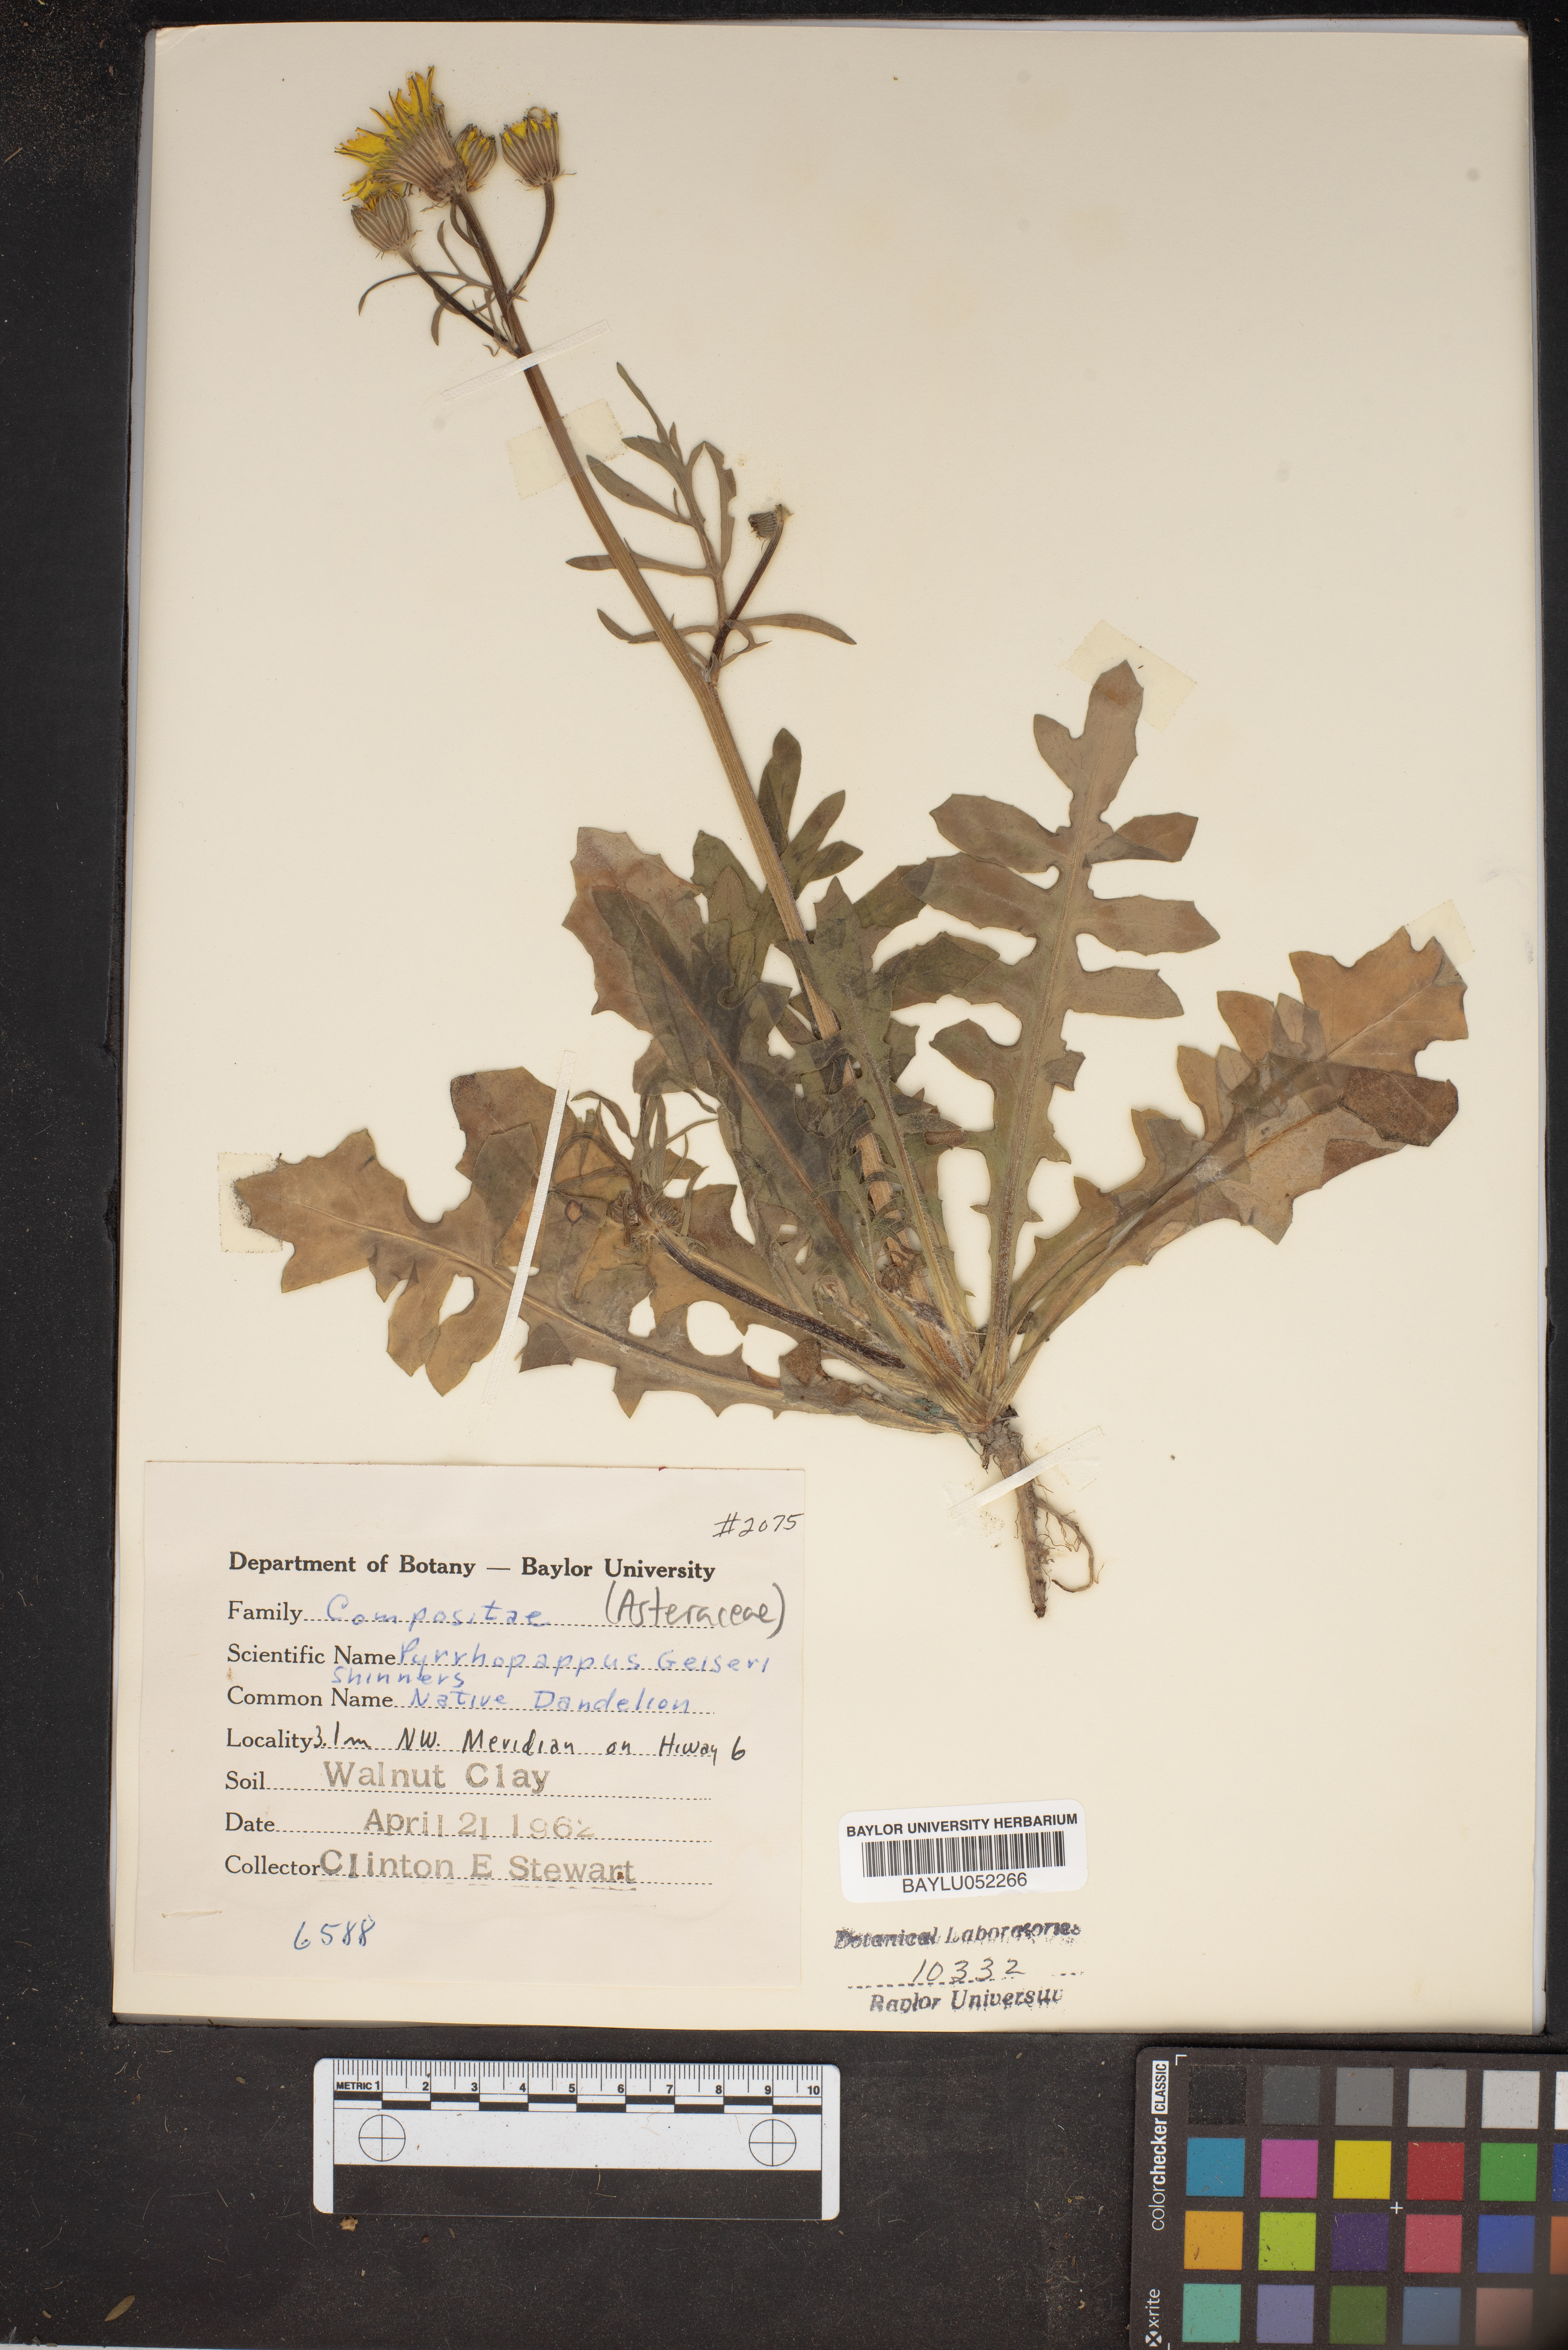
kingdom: Plantae
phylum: Tracheophyta
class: Magnoliopsida
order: Asterales
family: Asteraceae
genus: Pyrrhopappus
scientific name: Pyrrhopappus pauciflorus
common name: Texas false dandelion
